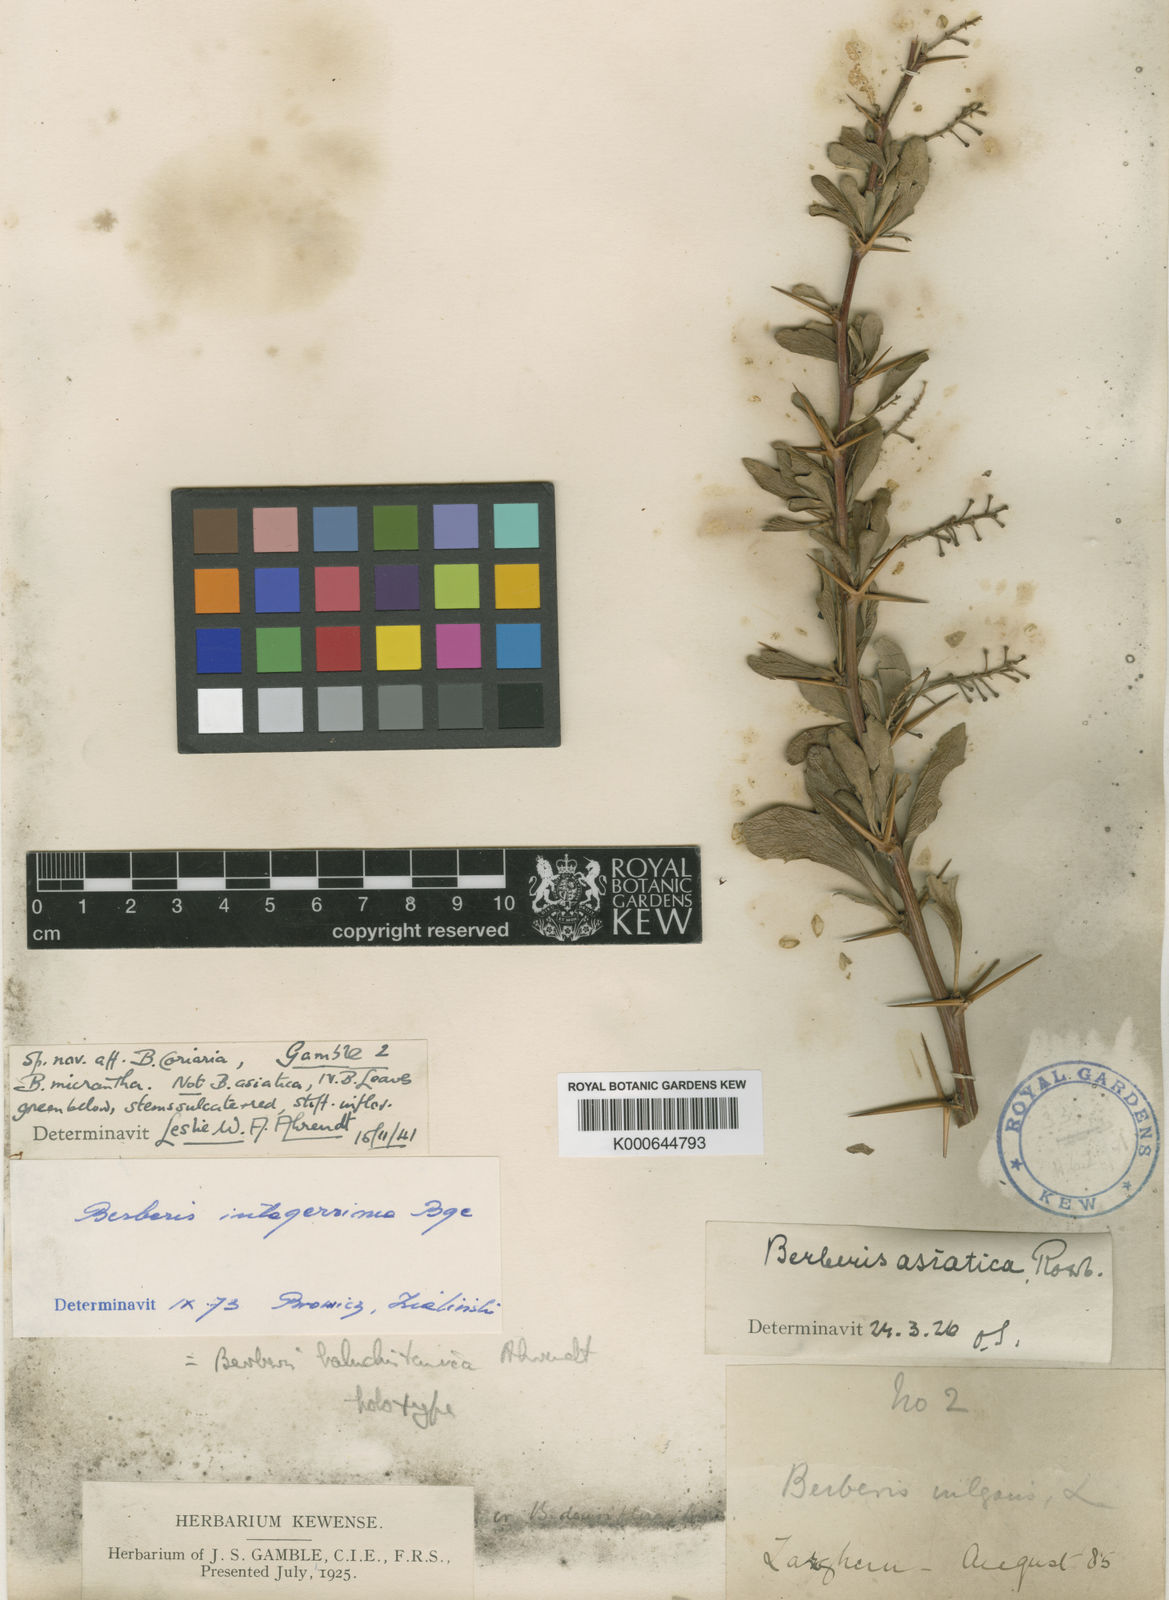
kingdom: Plantae
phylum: Tracheophyta
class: Magnoliopsida
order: Ranunculales
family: Berberidaceae
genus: Berberis
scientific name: Berberis integerrima
